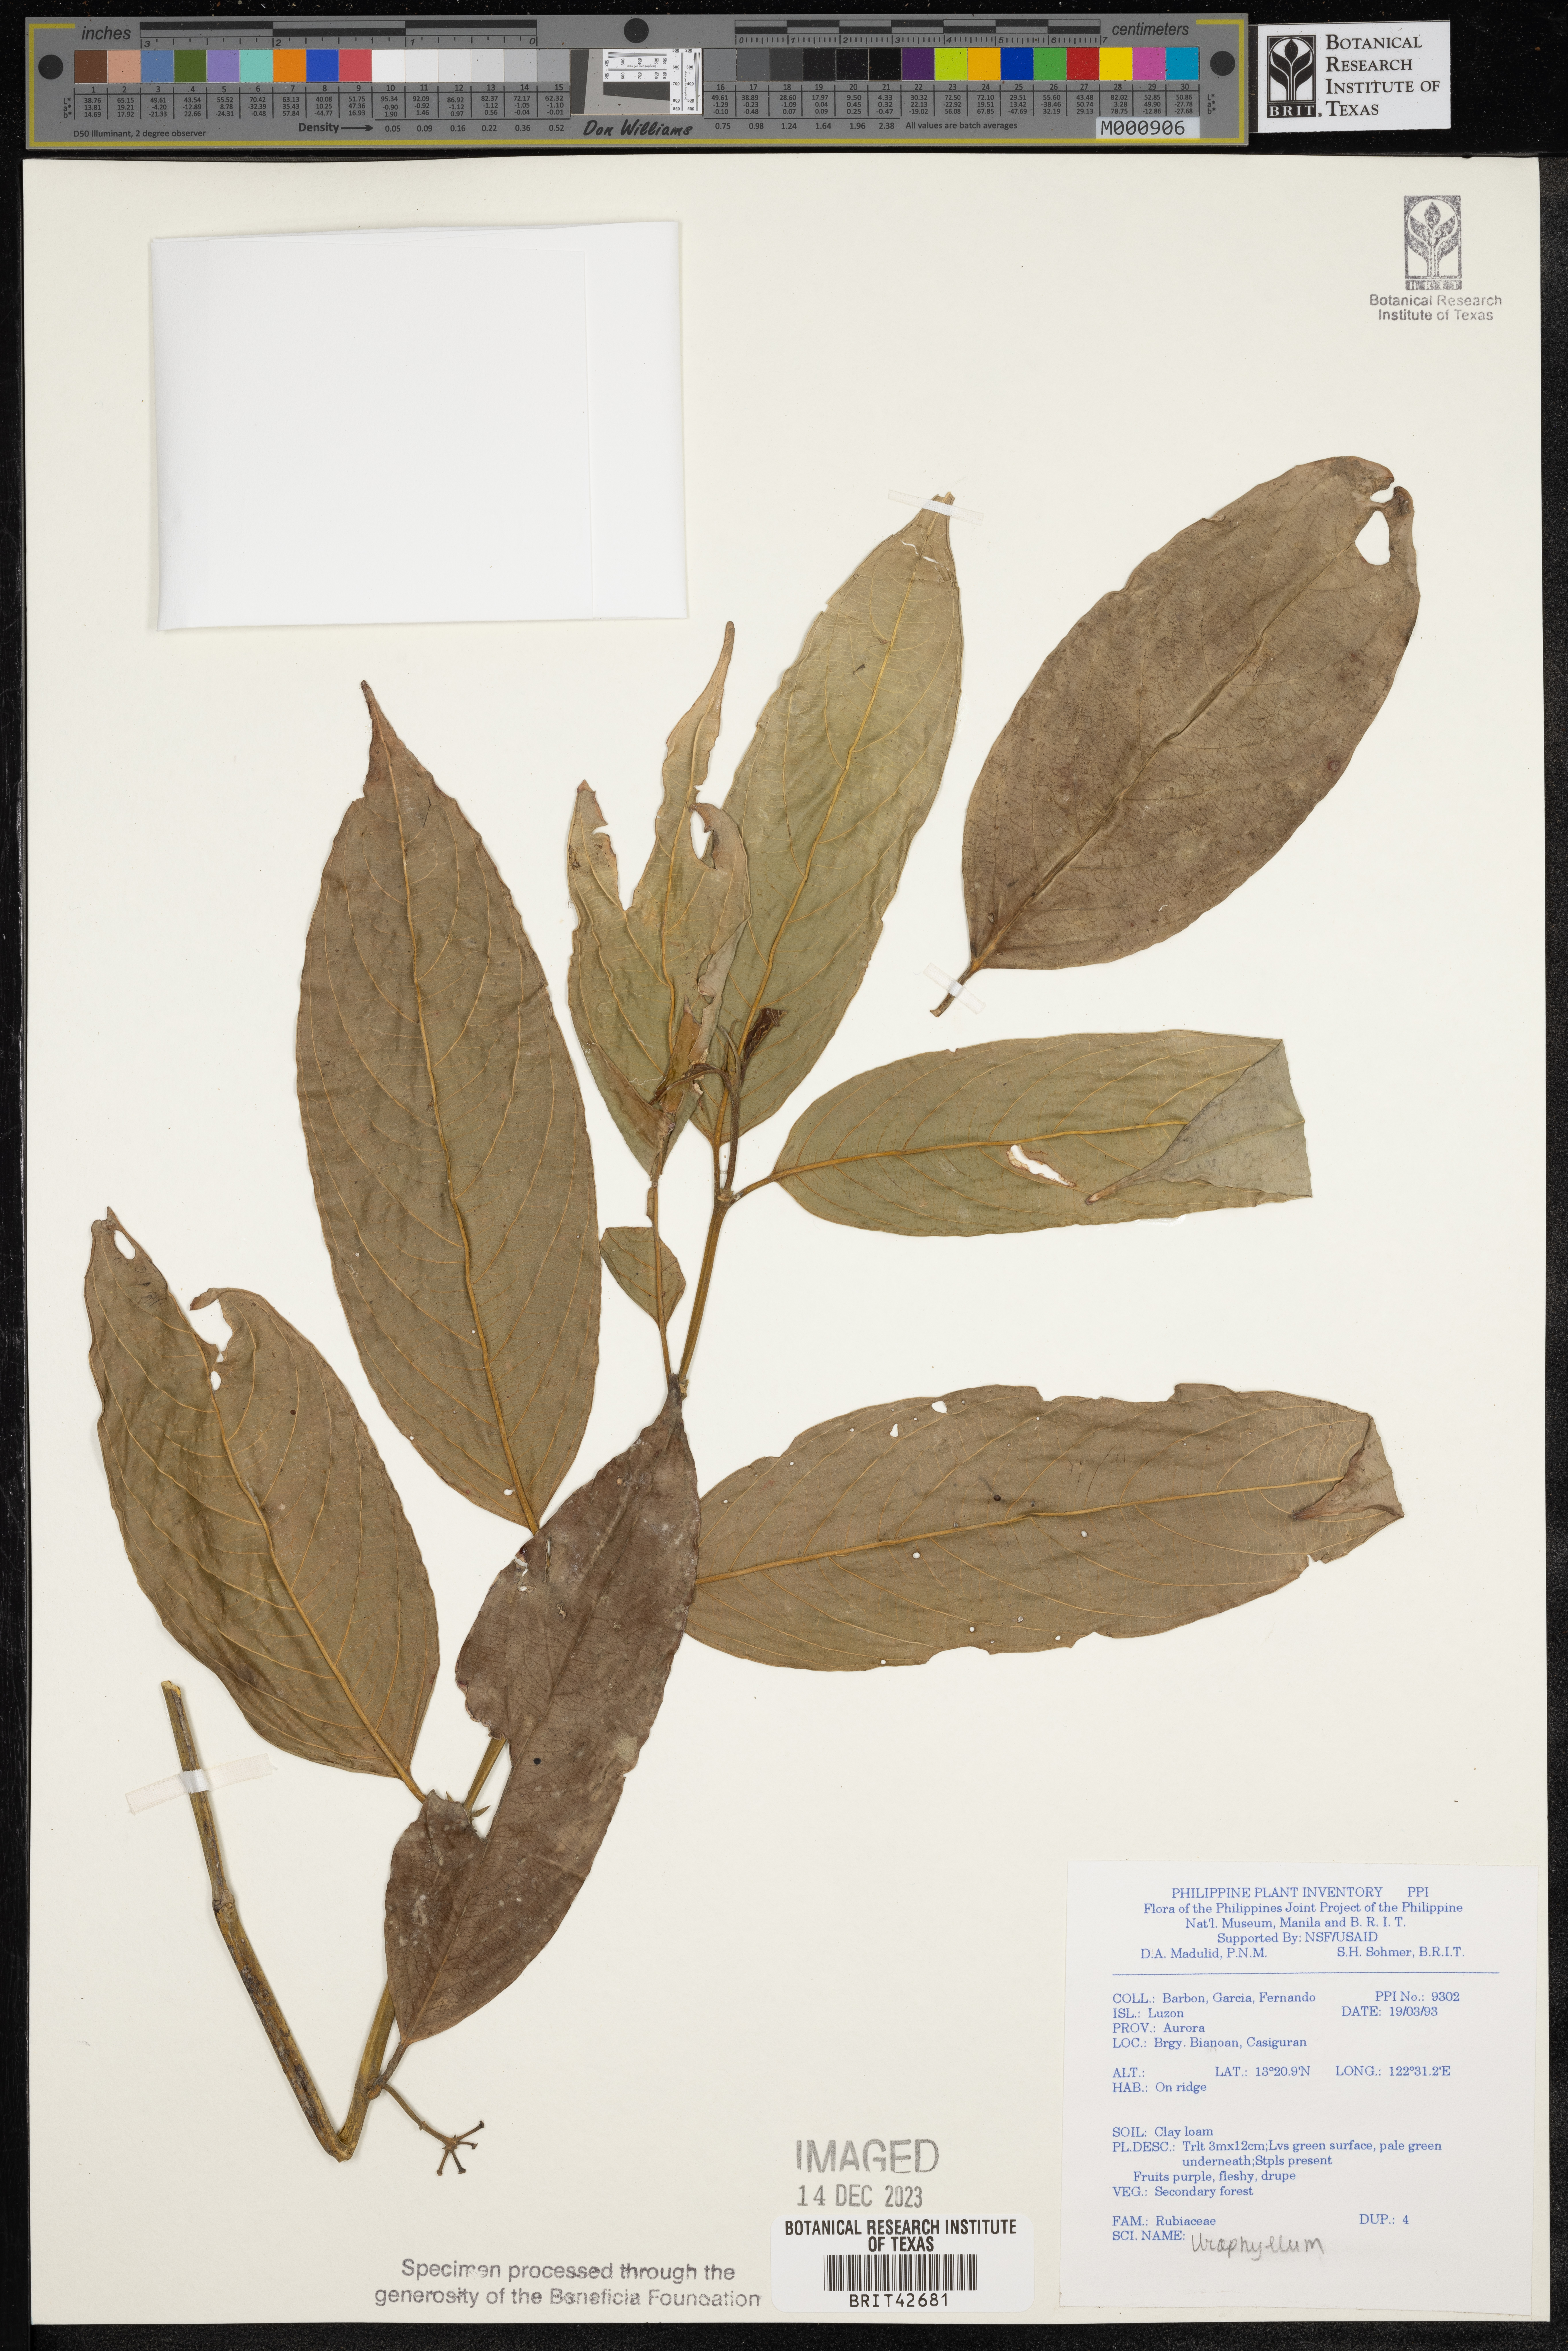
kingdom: Plantae
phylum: Tracheophyta
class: Magnoliopsida
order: Gentianales
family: Rubiaceae
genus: Urophyllum
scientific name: Urophyllum
